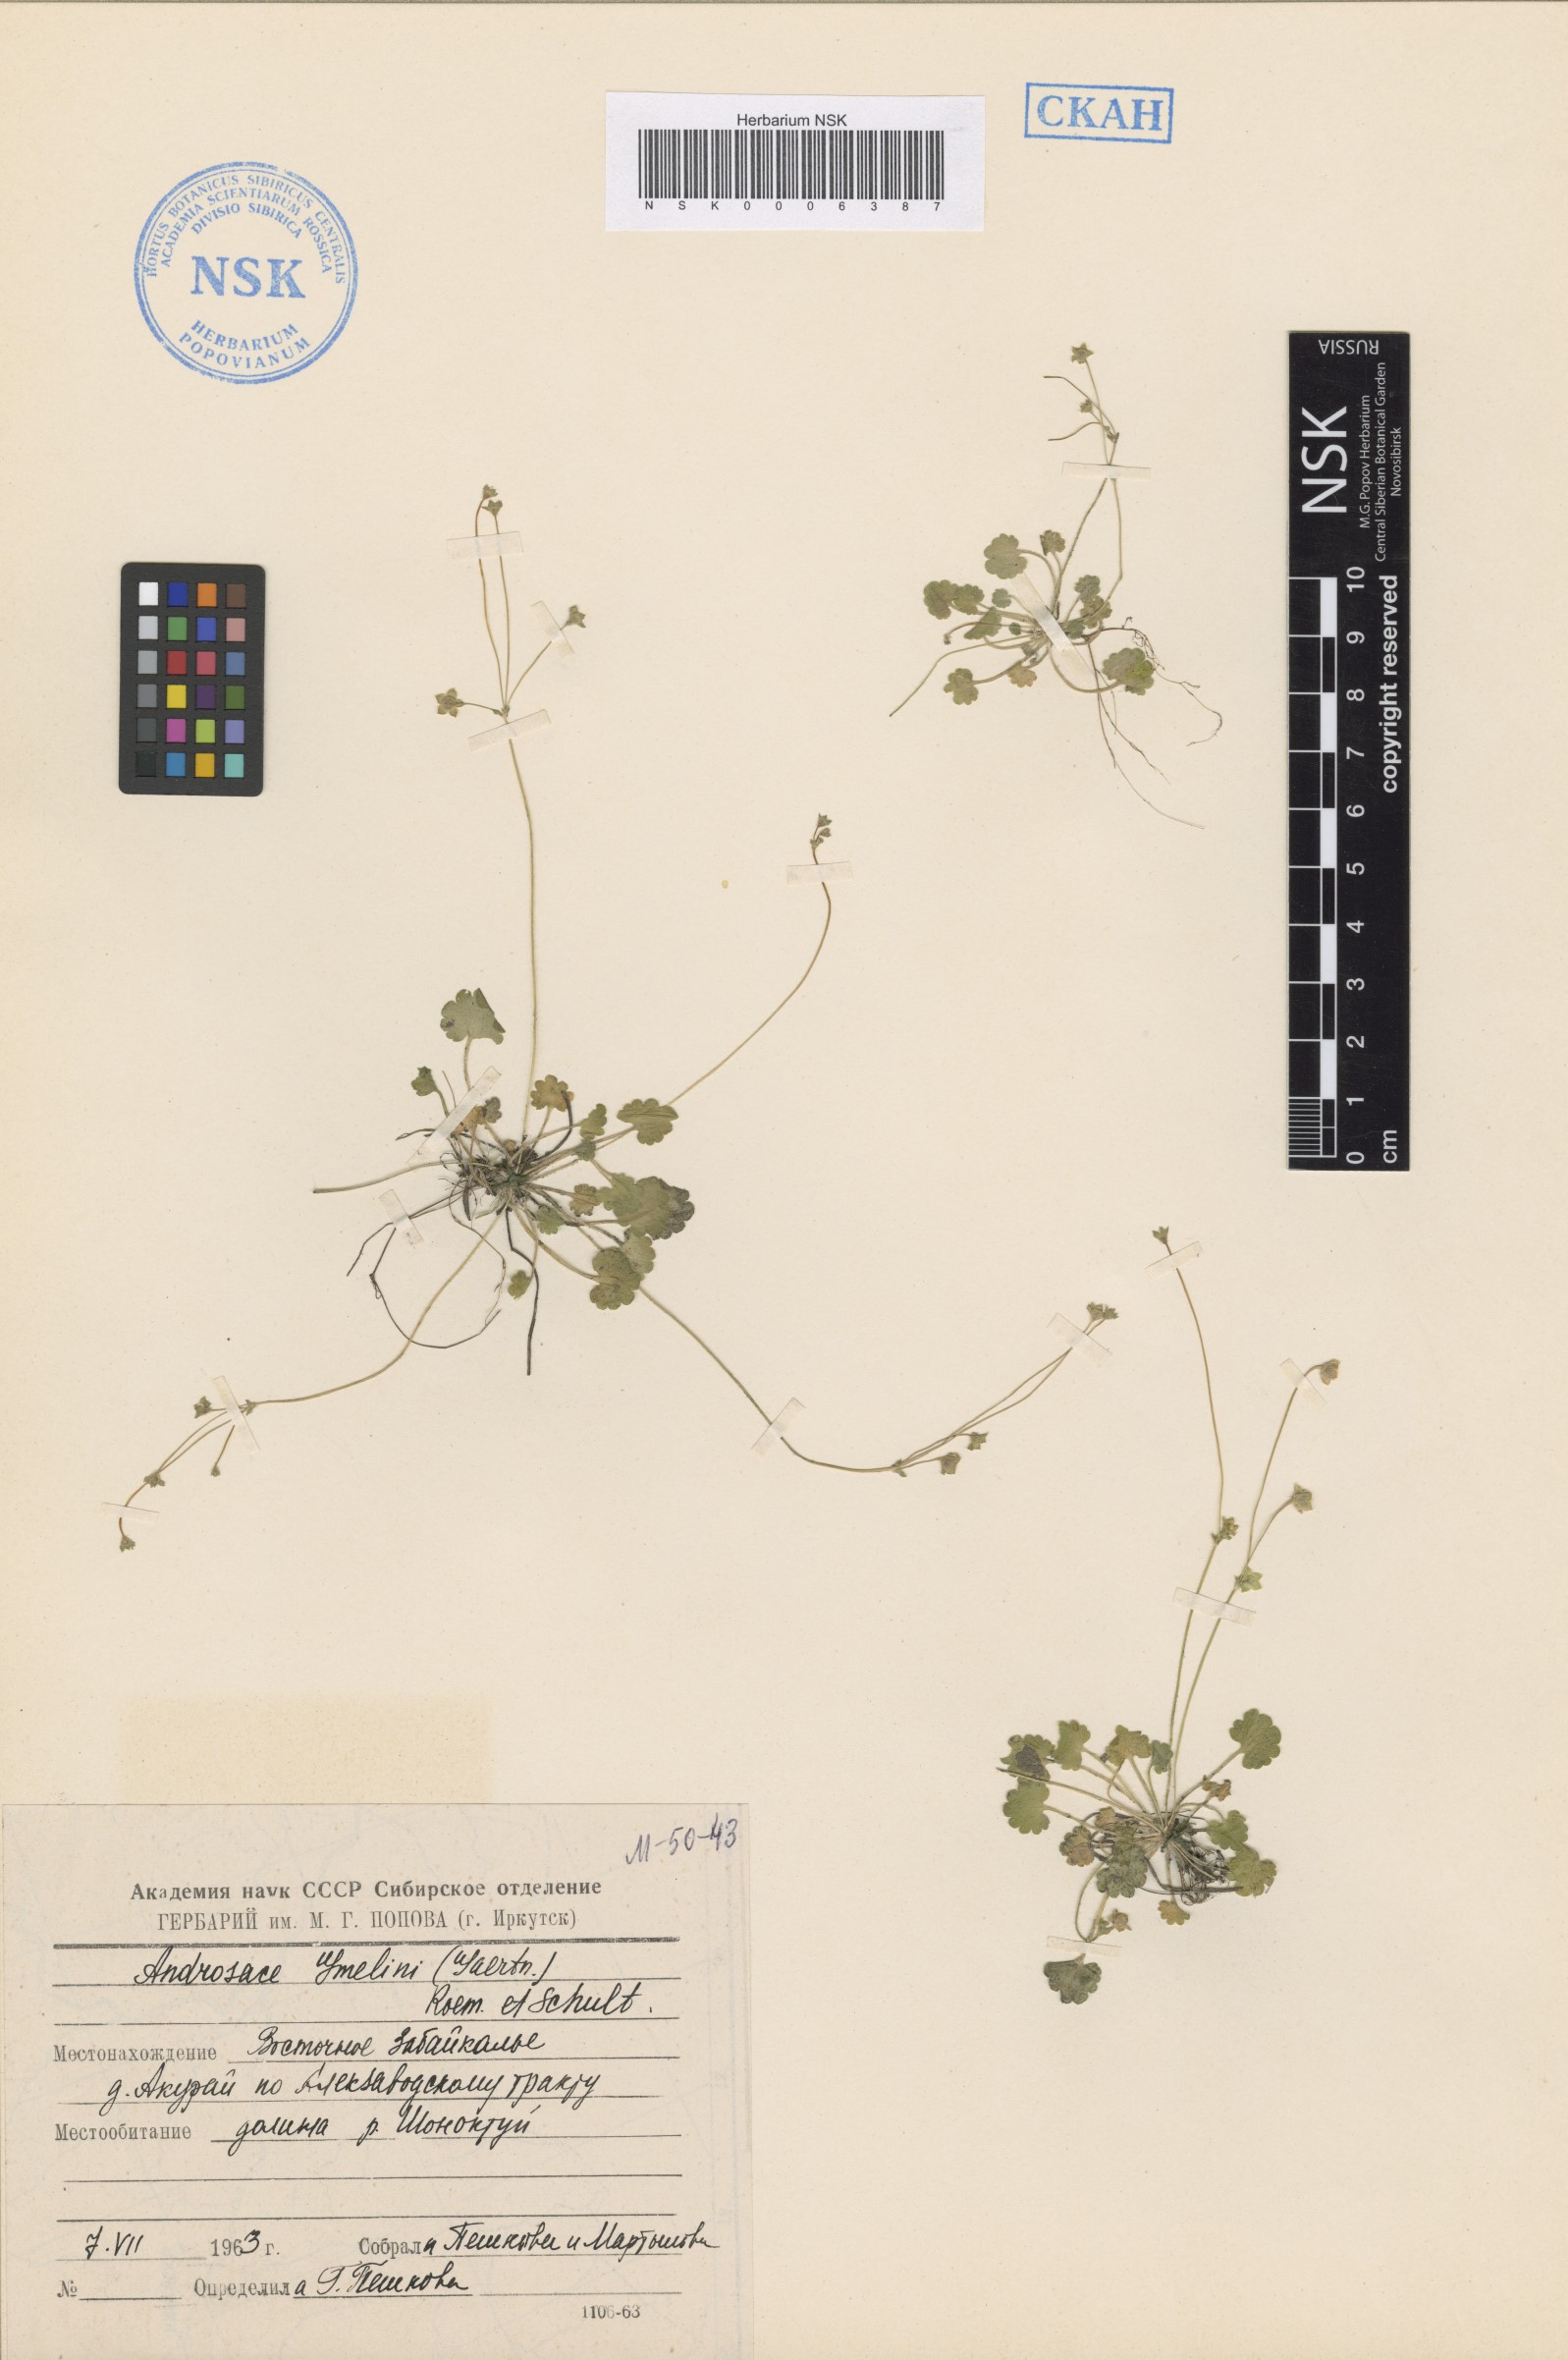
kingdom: Plantae
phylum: Tracheophyta
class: Magnoliopsida
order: Ericales
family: Primulaceae
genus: Androsace
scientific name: Androsace gmelinii
